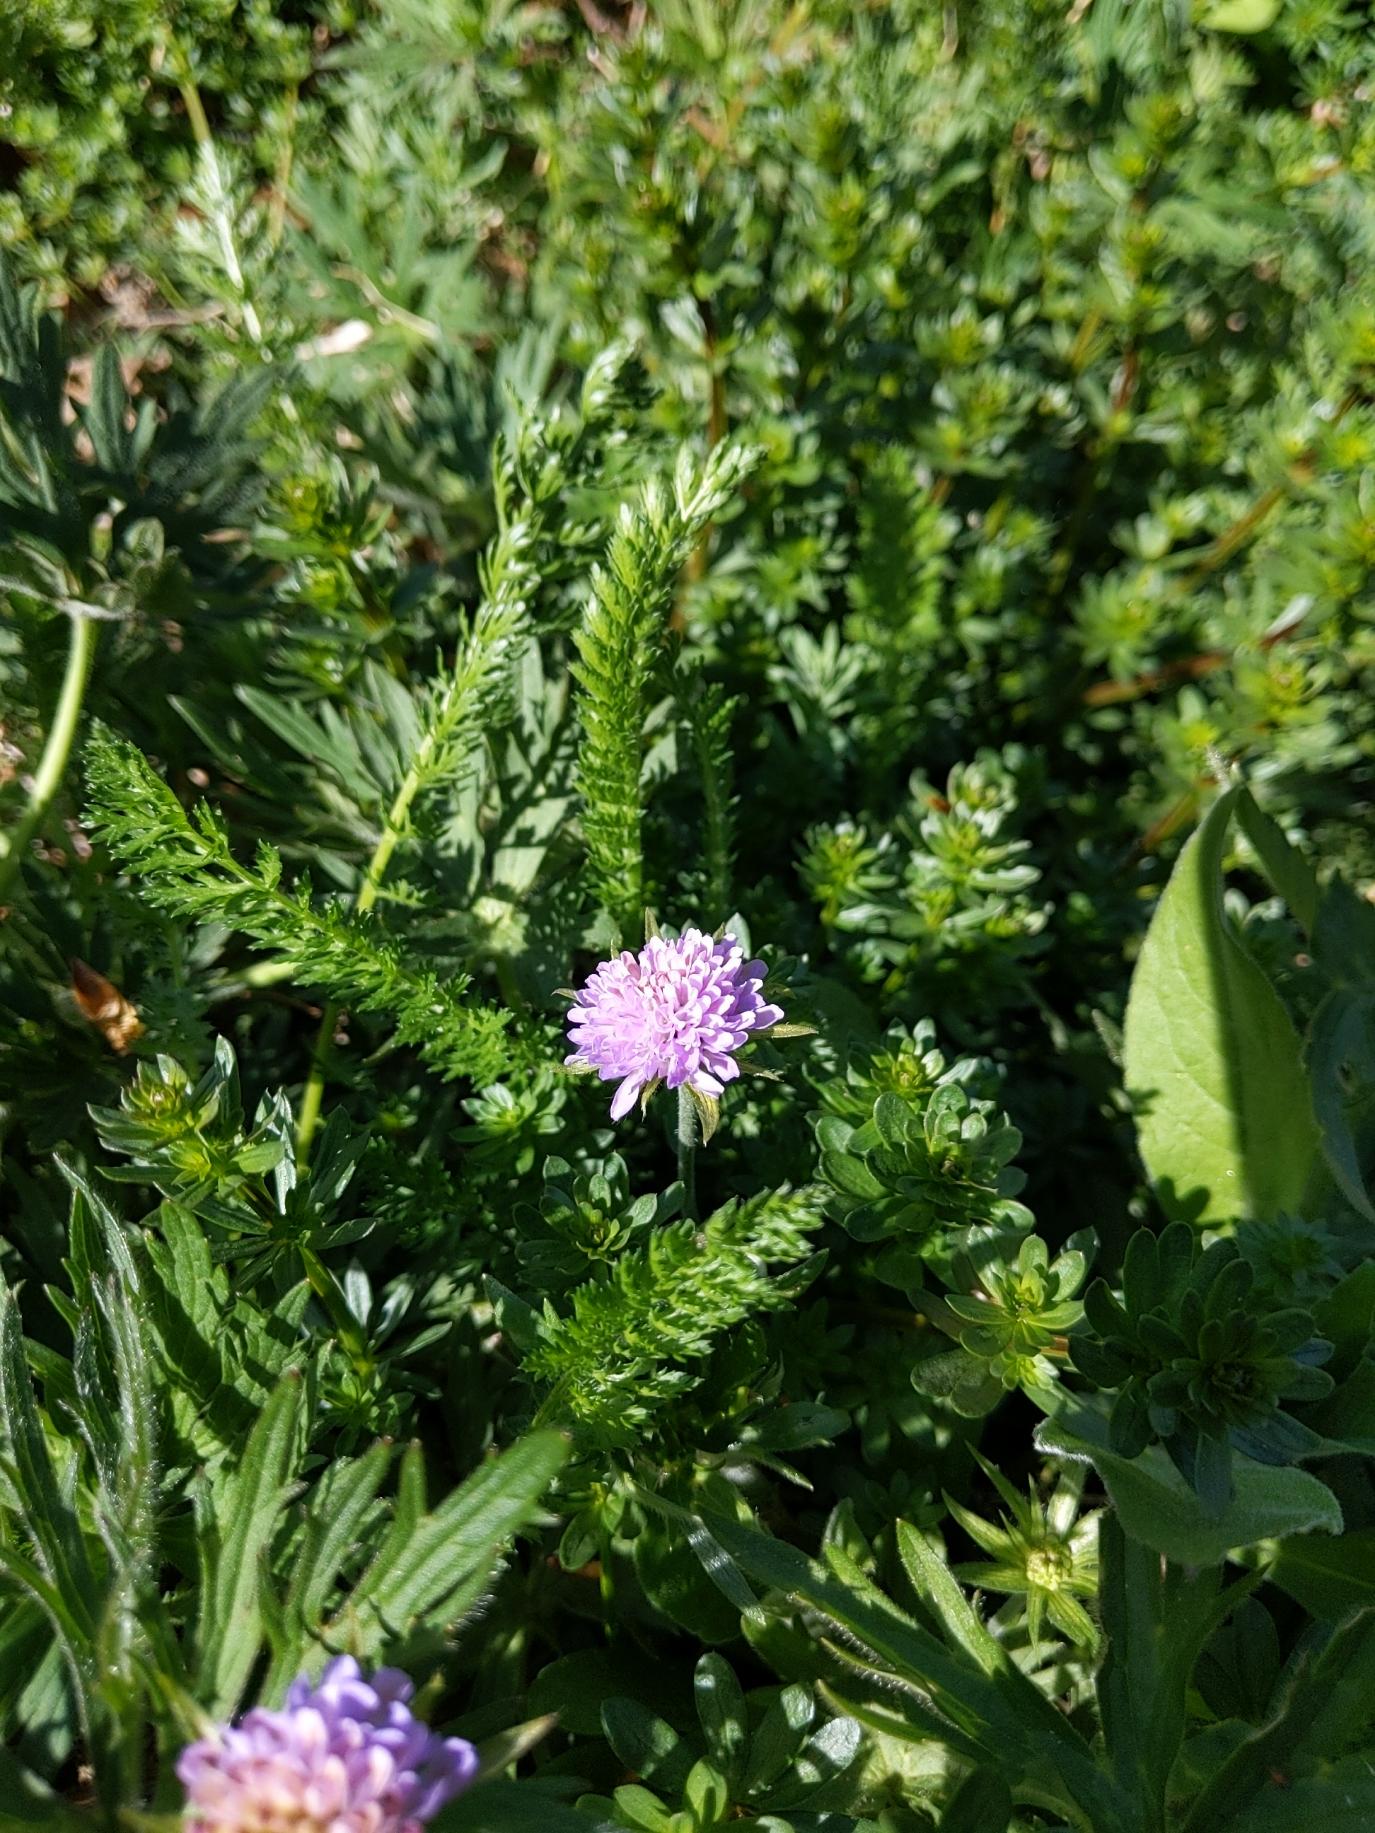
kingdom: Plantae
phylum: Tracheophyta
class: Magnoliopsida
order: Dipsacales
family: Caprifoliaceae
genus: Knautia
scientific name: Knautia arvensis
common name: Blåhat
